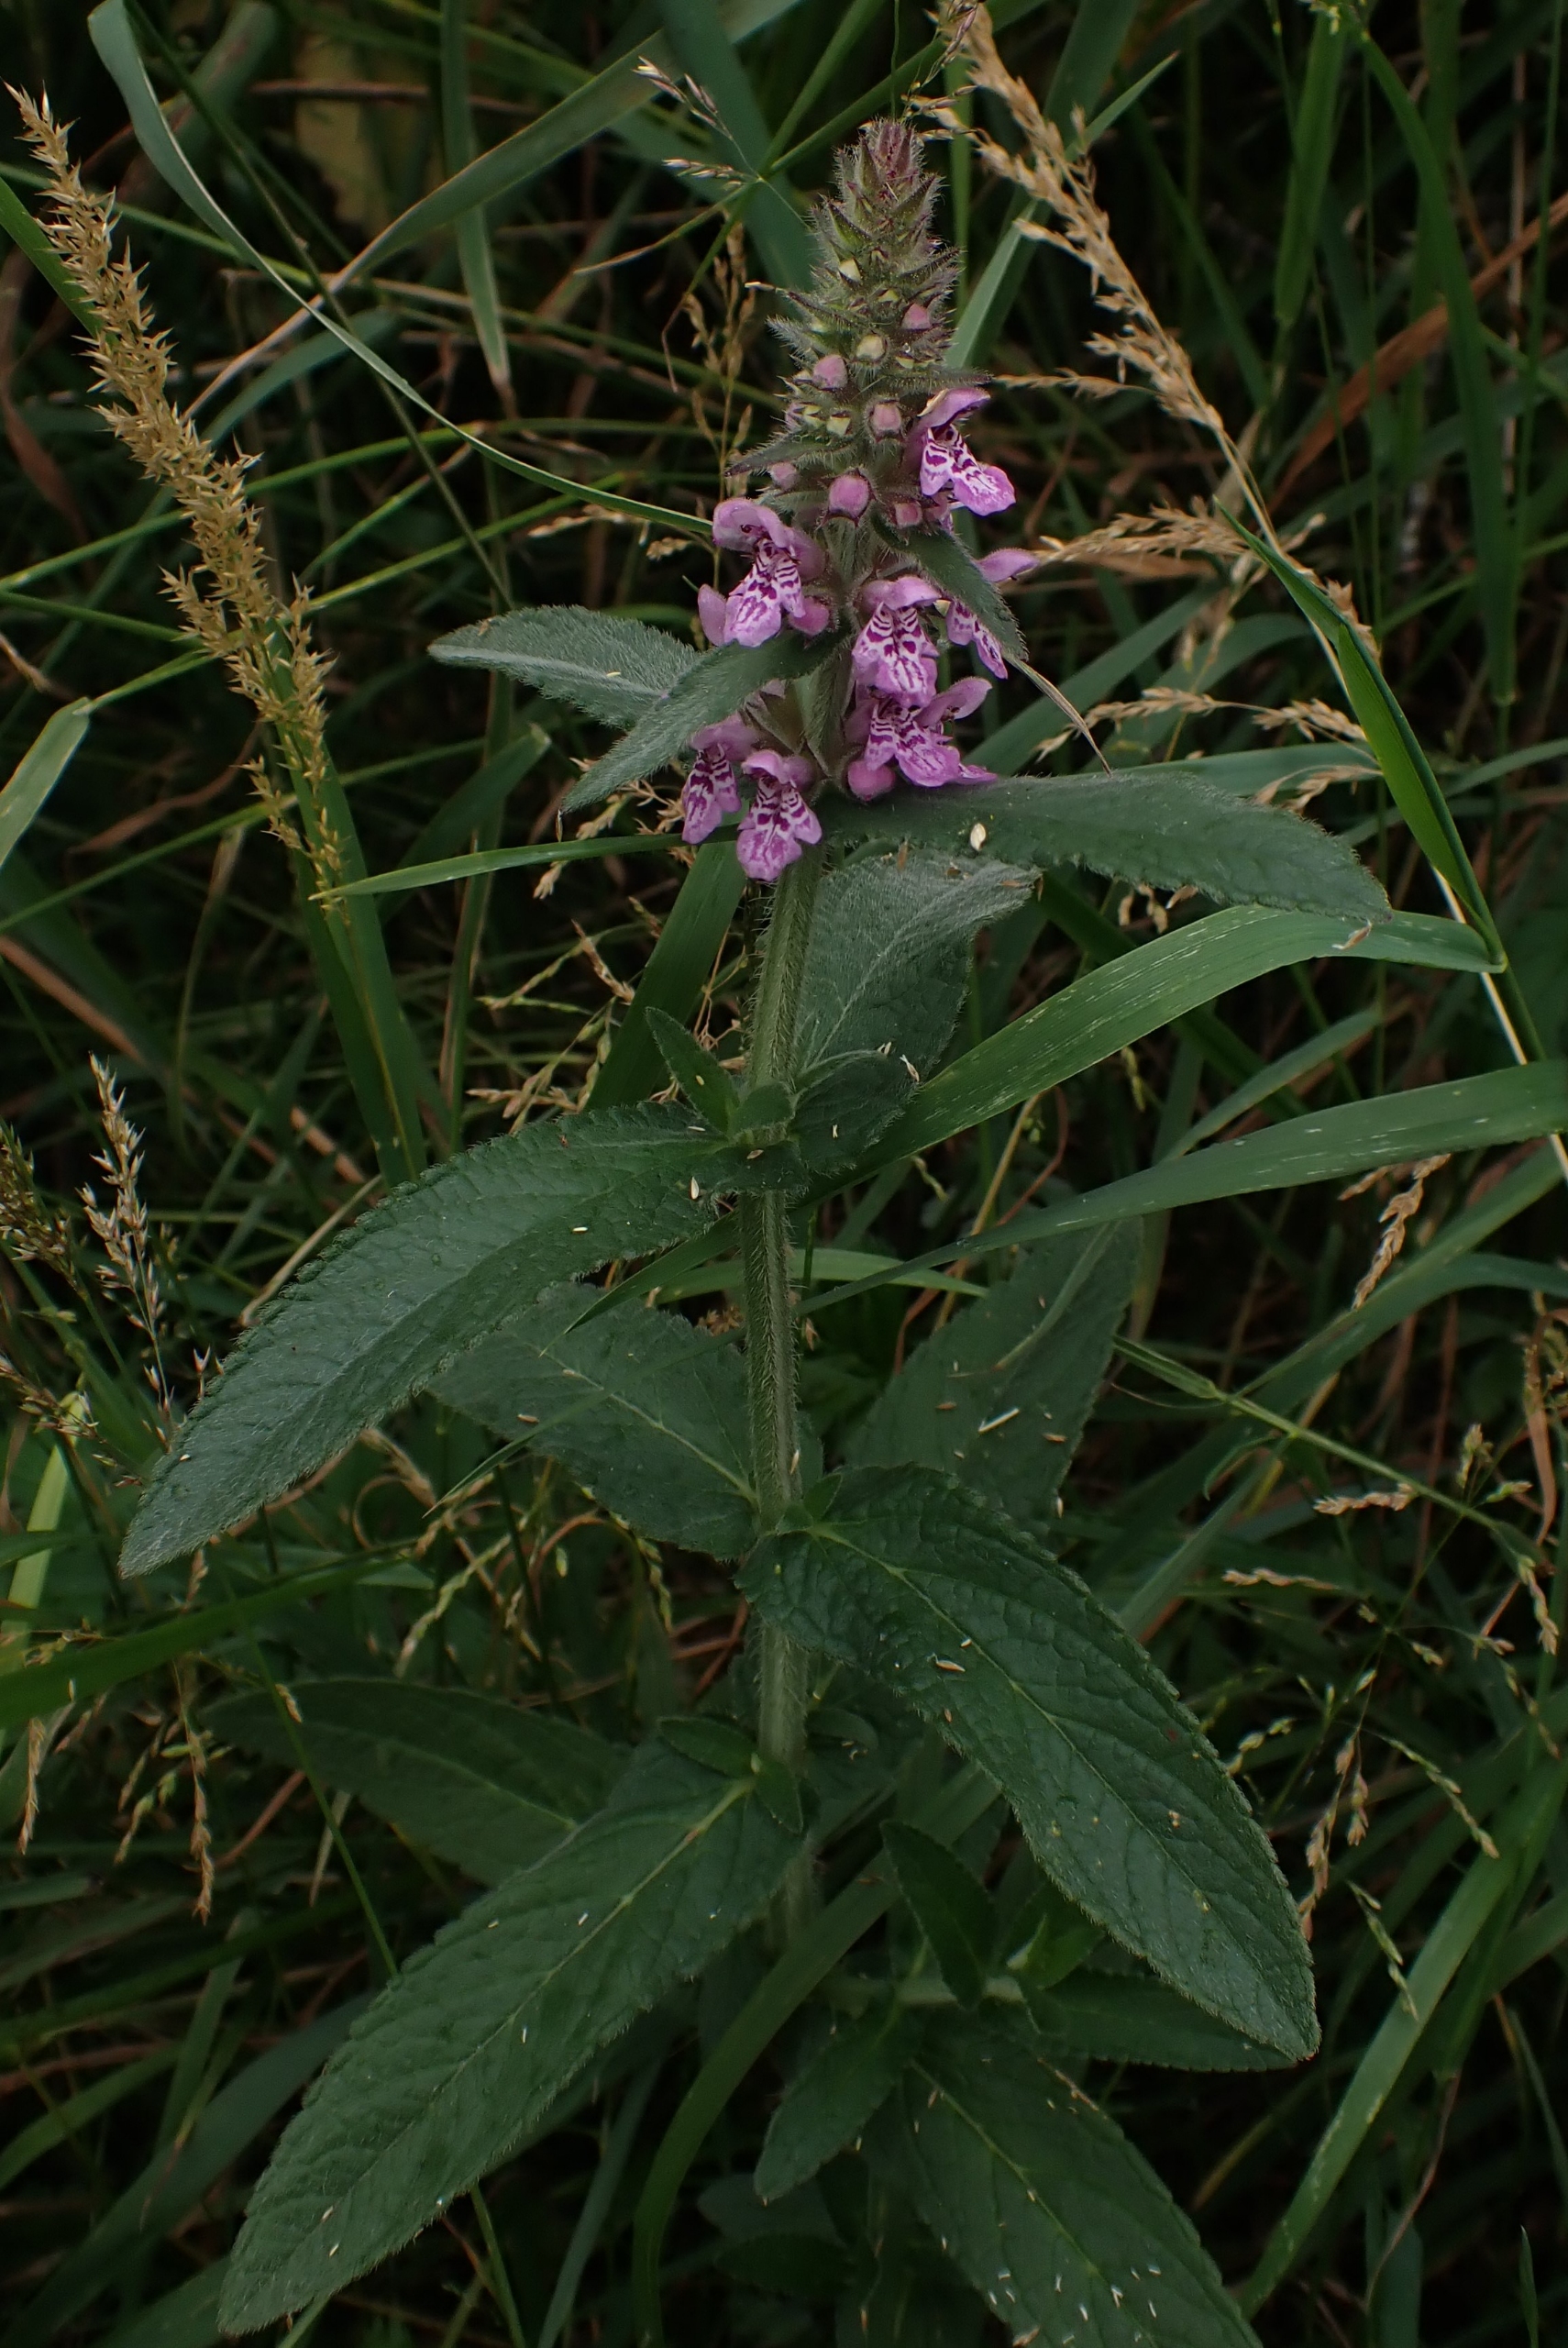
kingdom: Plantae
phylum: Tracheophyta
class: Magnoliopsida
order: Lamiales
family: Lamiaceae
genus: Stachys
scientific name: Stachys palustris
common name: Kær-galtetand
